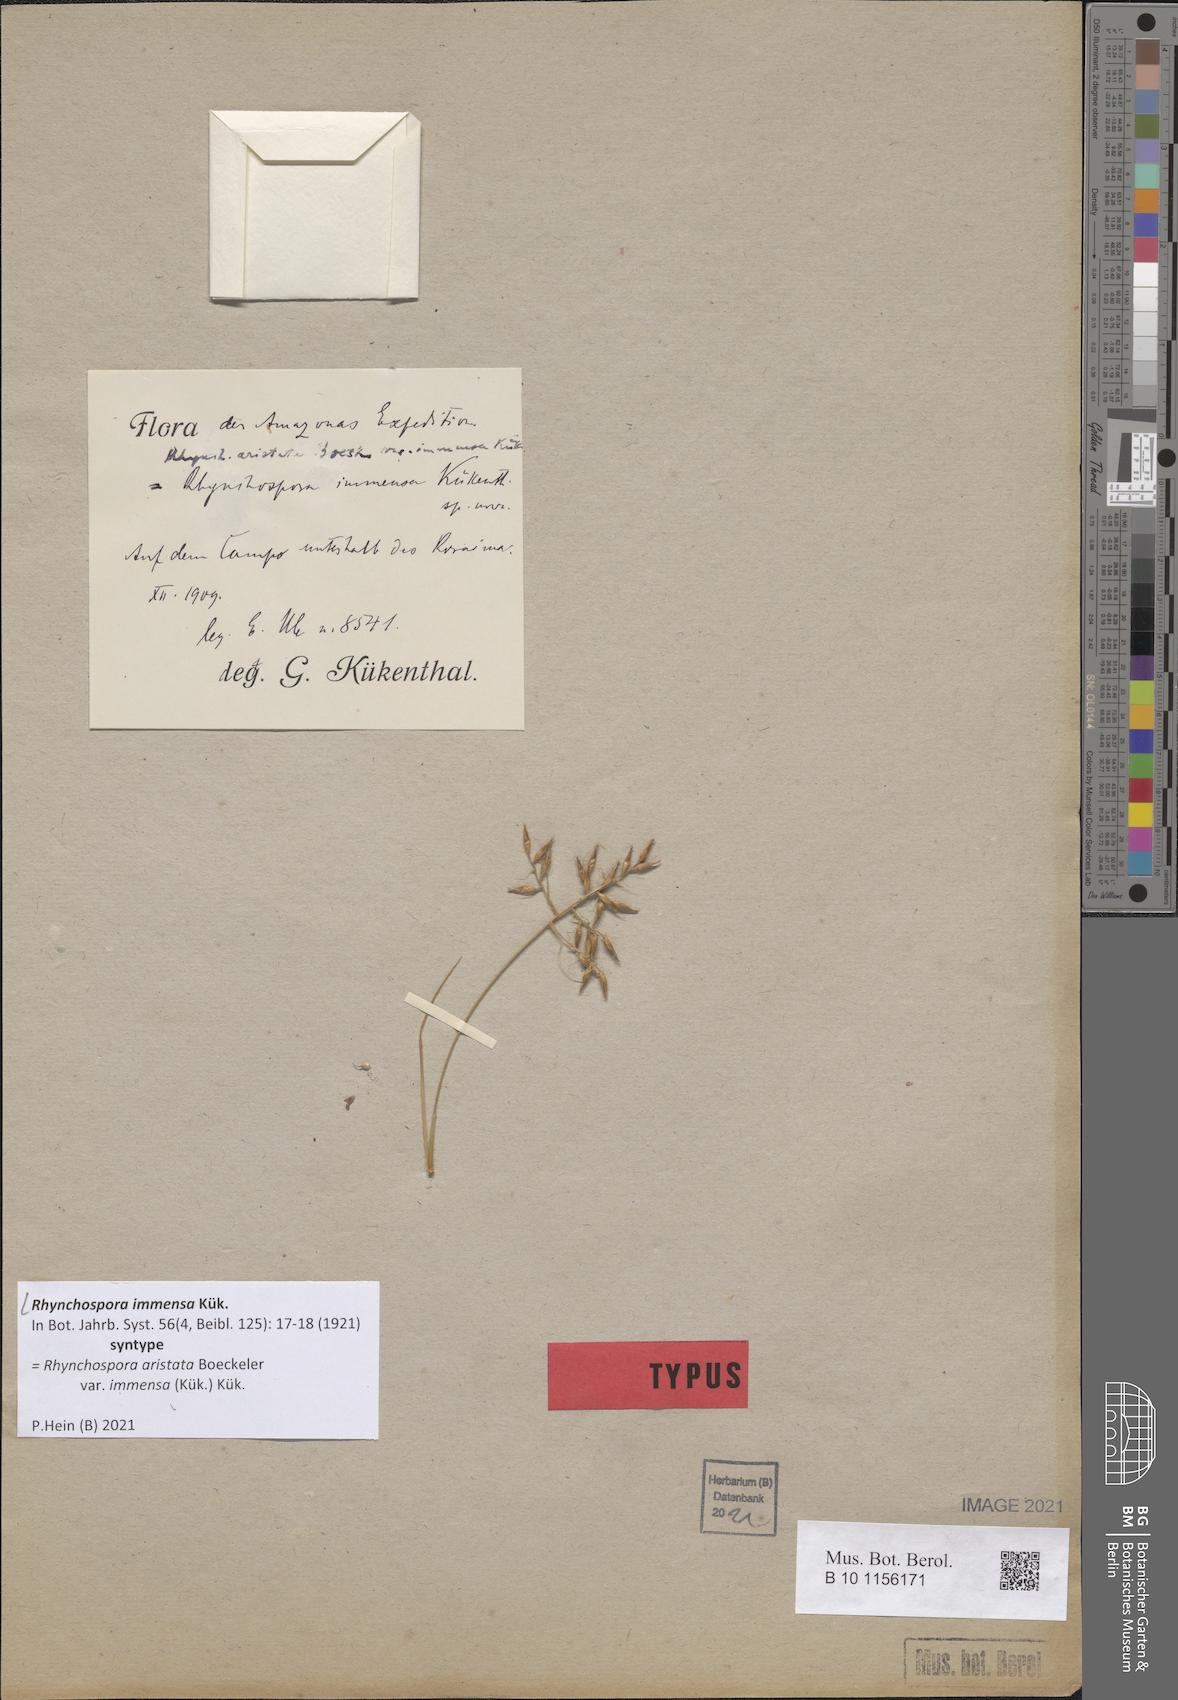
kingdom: Plantae
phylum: Tracheophyta
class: Liliopsida
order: Poales
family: Cyperaceae
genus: Rhynchospora
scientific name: Rhynchospora immensa
